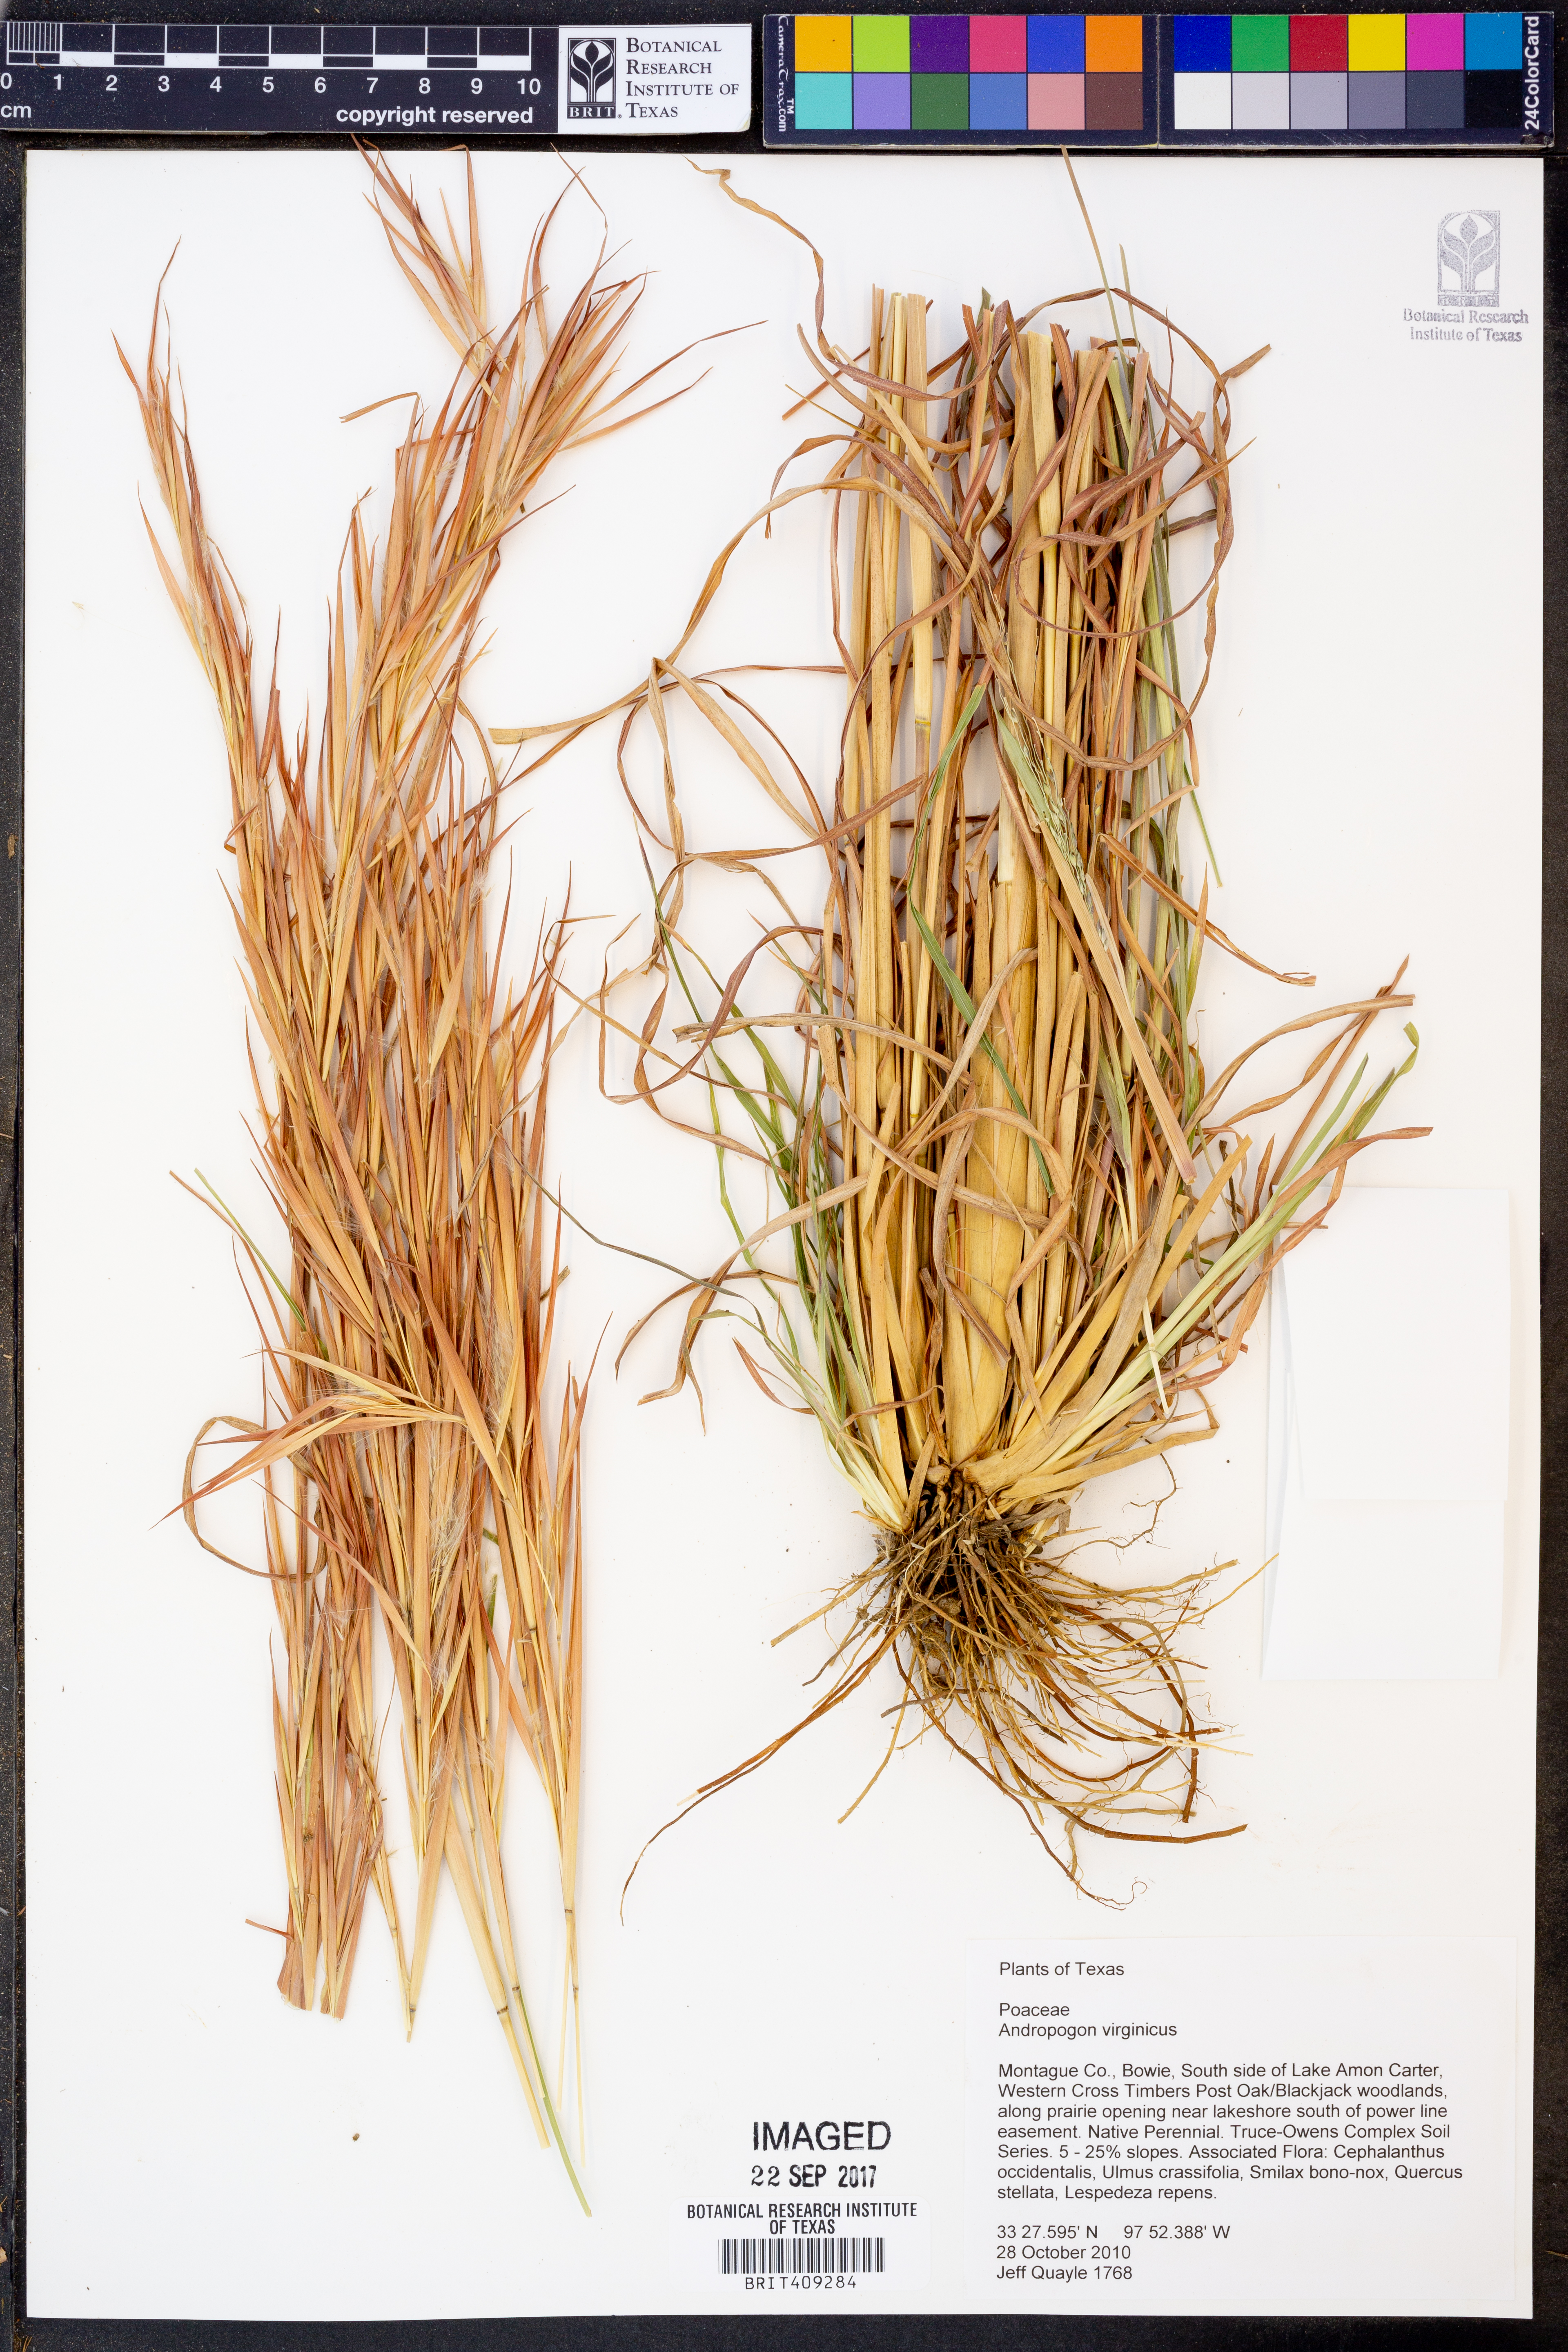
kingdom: Plantae
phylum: Tracheophyta
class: Liliopsida
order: Poales
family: Poaceae
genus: Andropogon
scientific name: Andropogon virginicus
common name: Broomsedge bluestem
